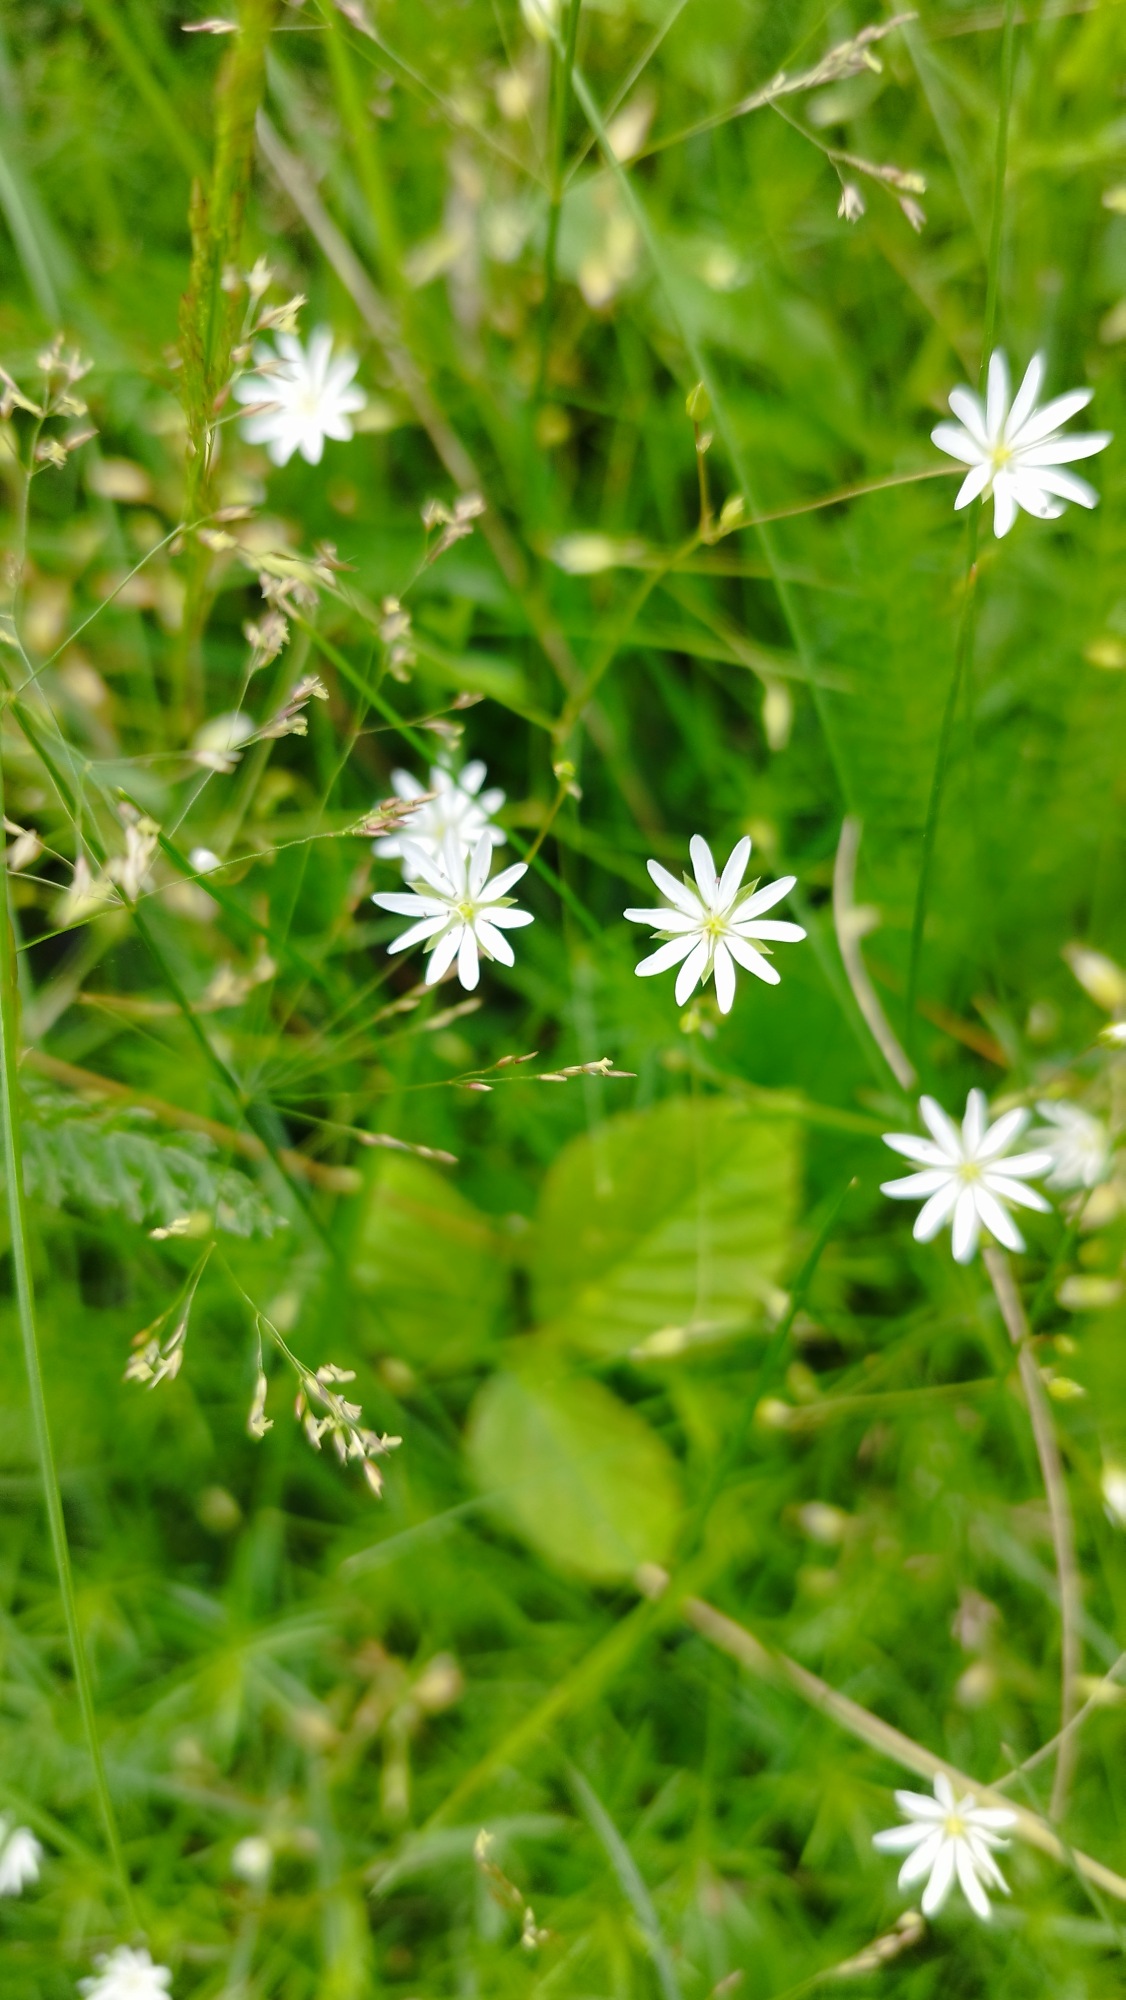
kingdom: Plantae
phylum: Tracheophyta
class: Magnoliopsida
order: Caryophyllales
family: Caryophyllaceae
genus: Stellaria
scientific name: Stellaria graminea
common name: Græsbladet fladstjerne
